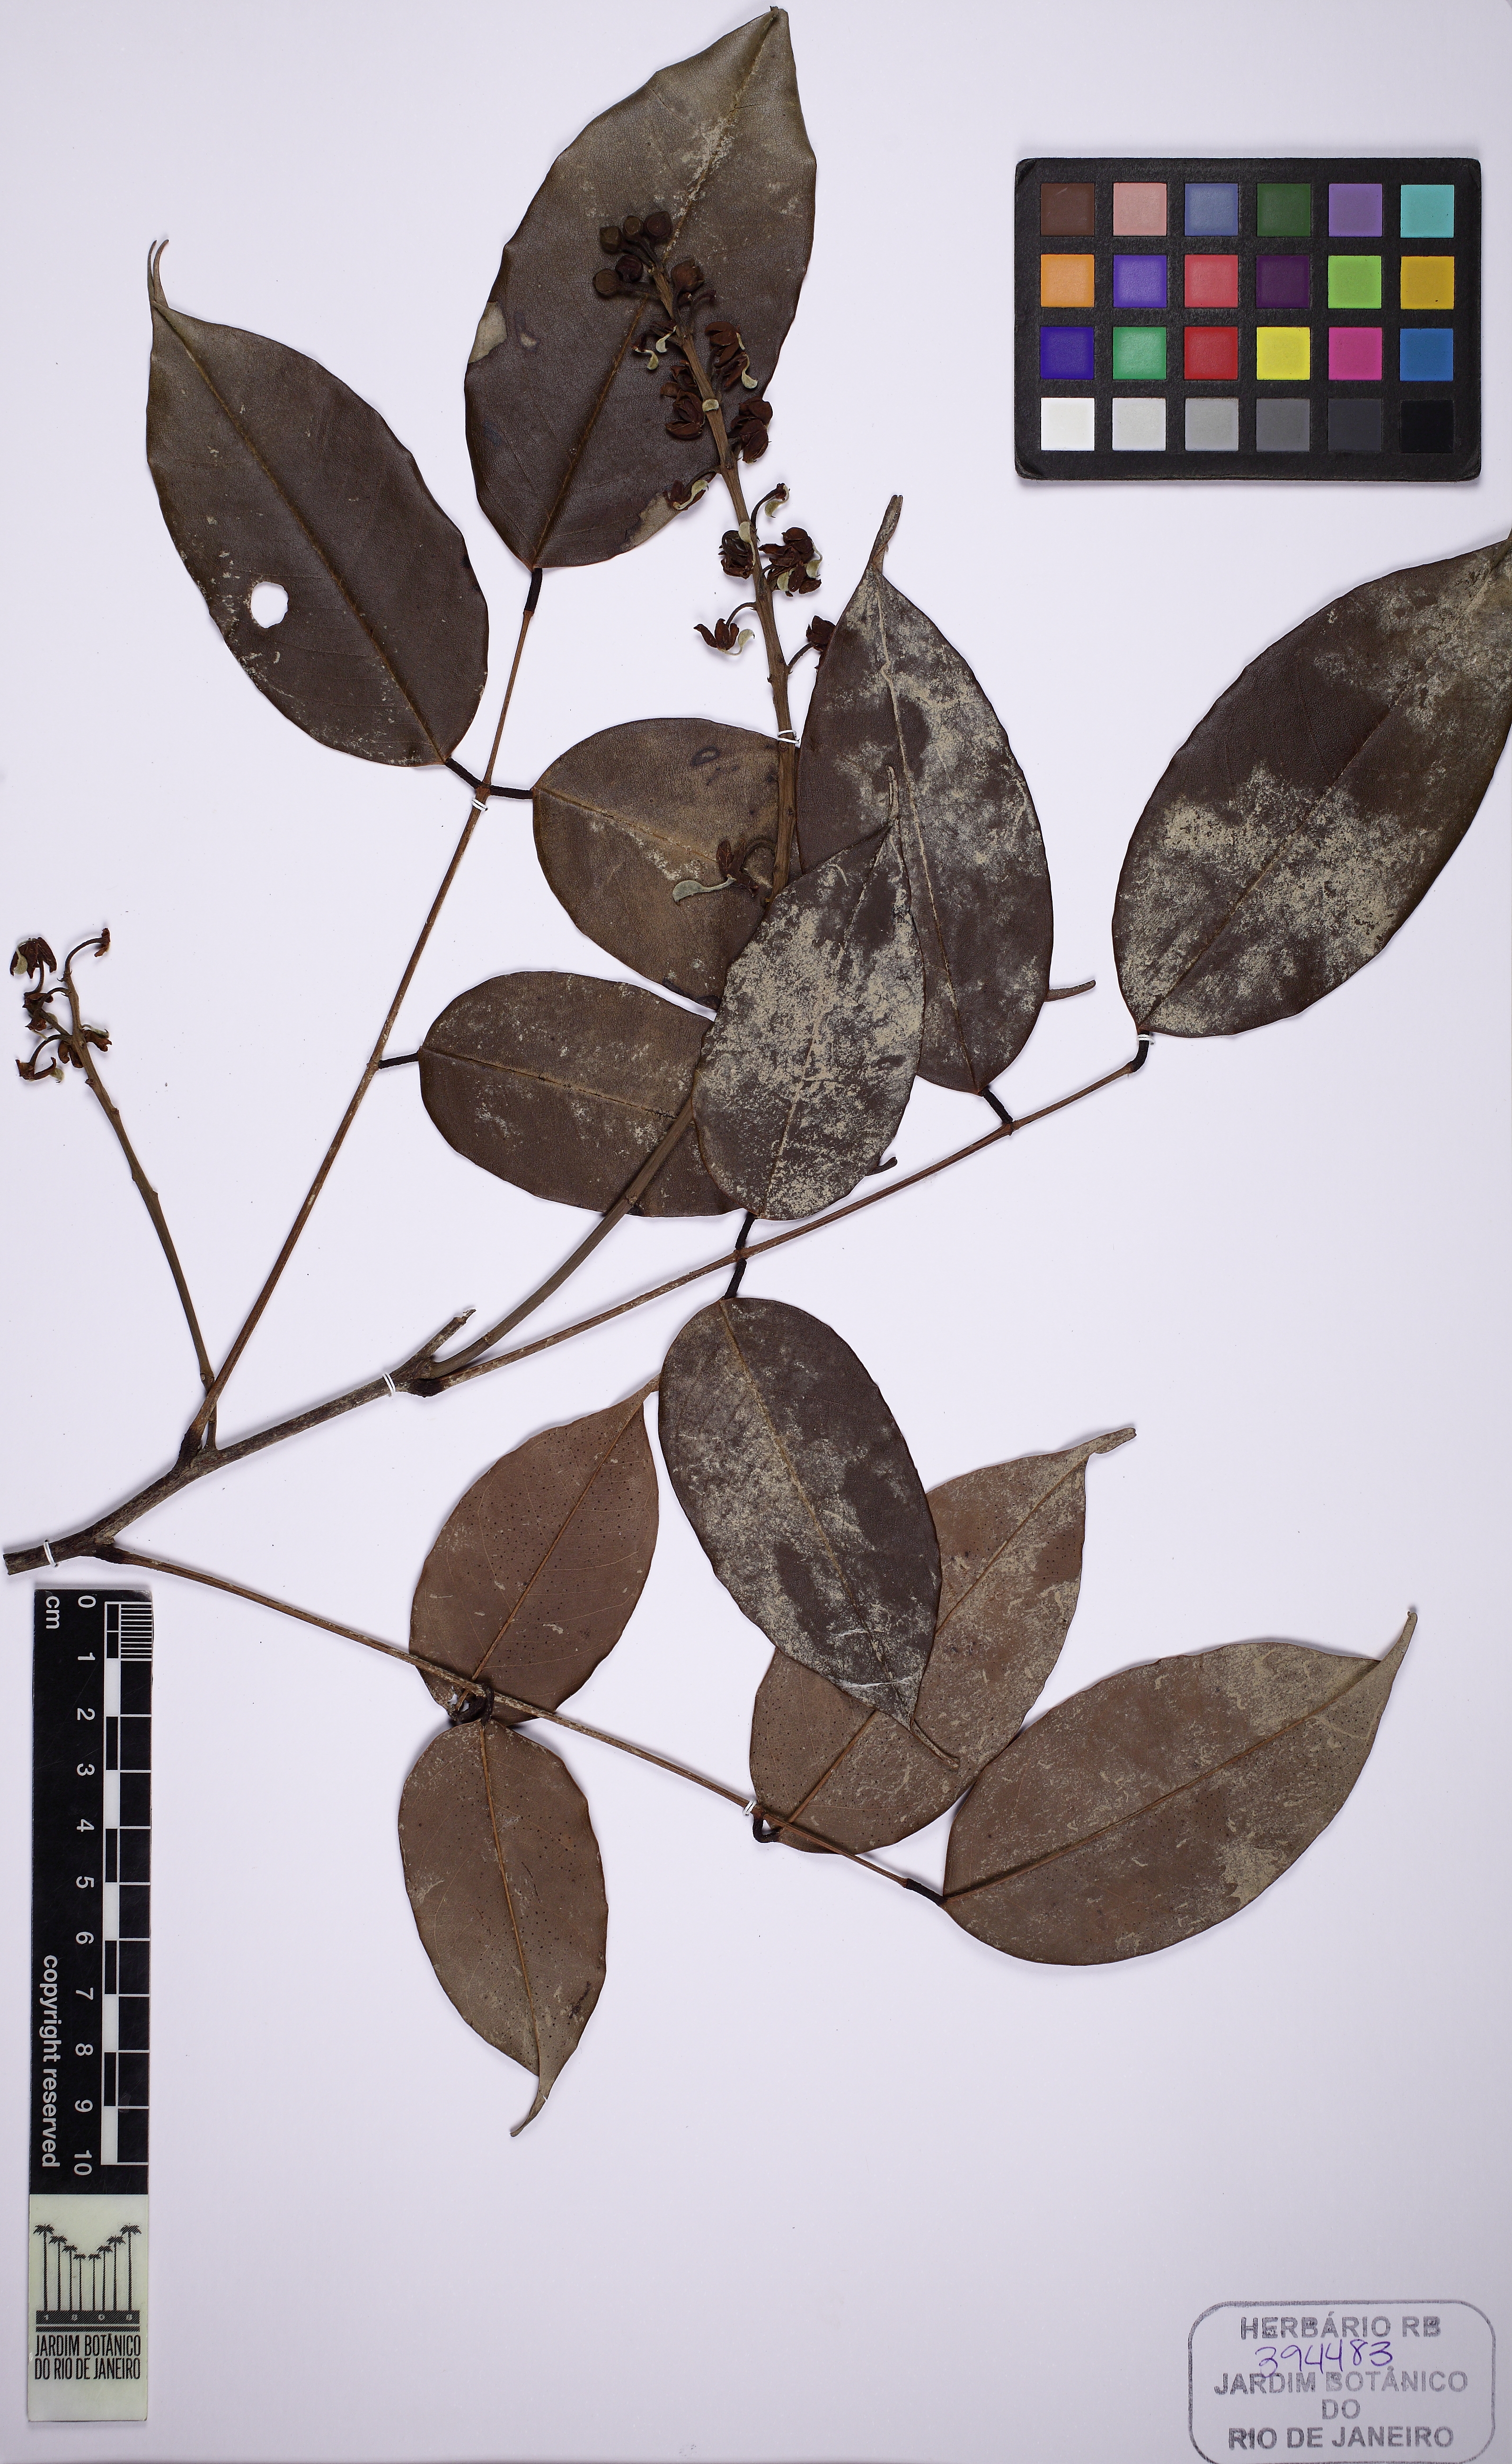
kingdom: Plantae
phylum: Tracheophyta
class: Magnoliopsida
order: Fabales
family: Fabaceae
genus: Swartzia
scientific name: Swartzia laevicarpa
